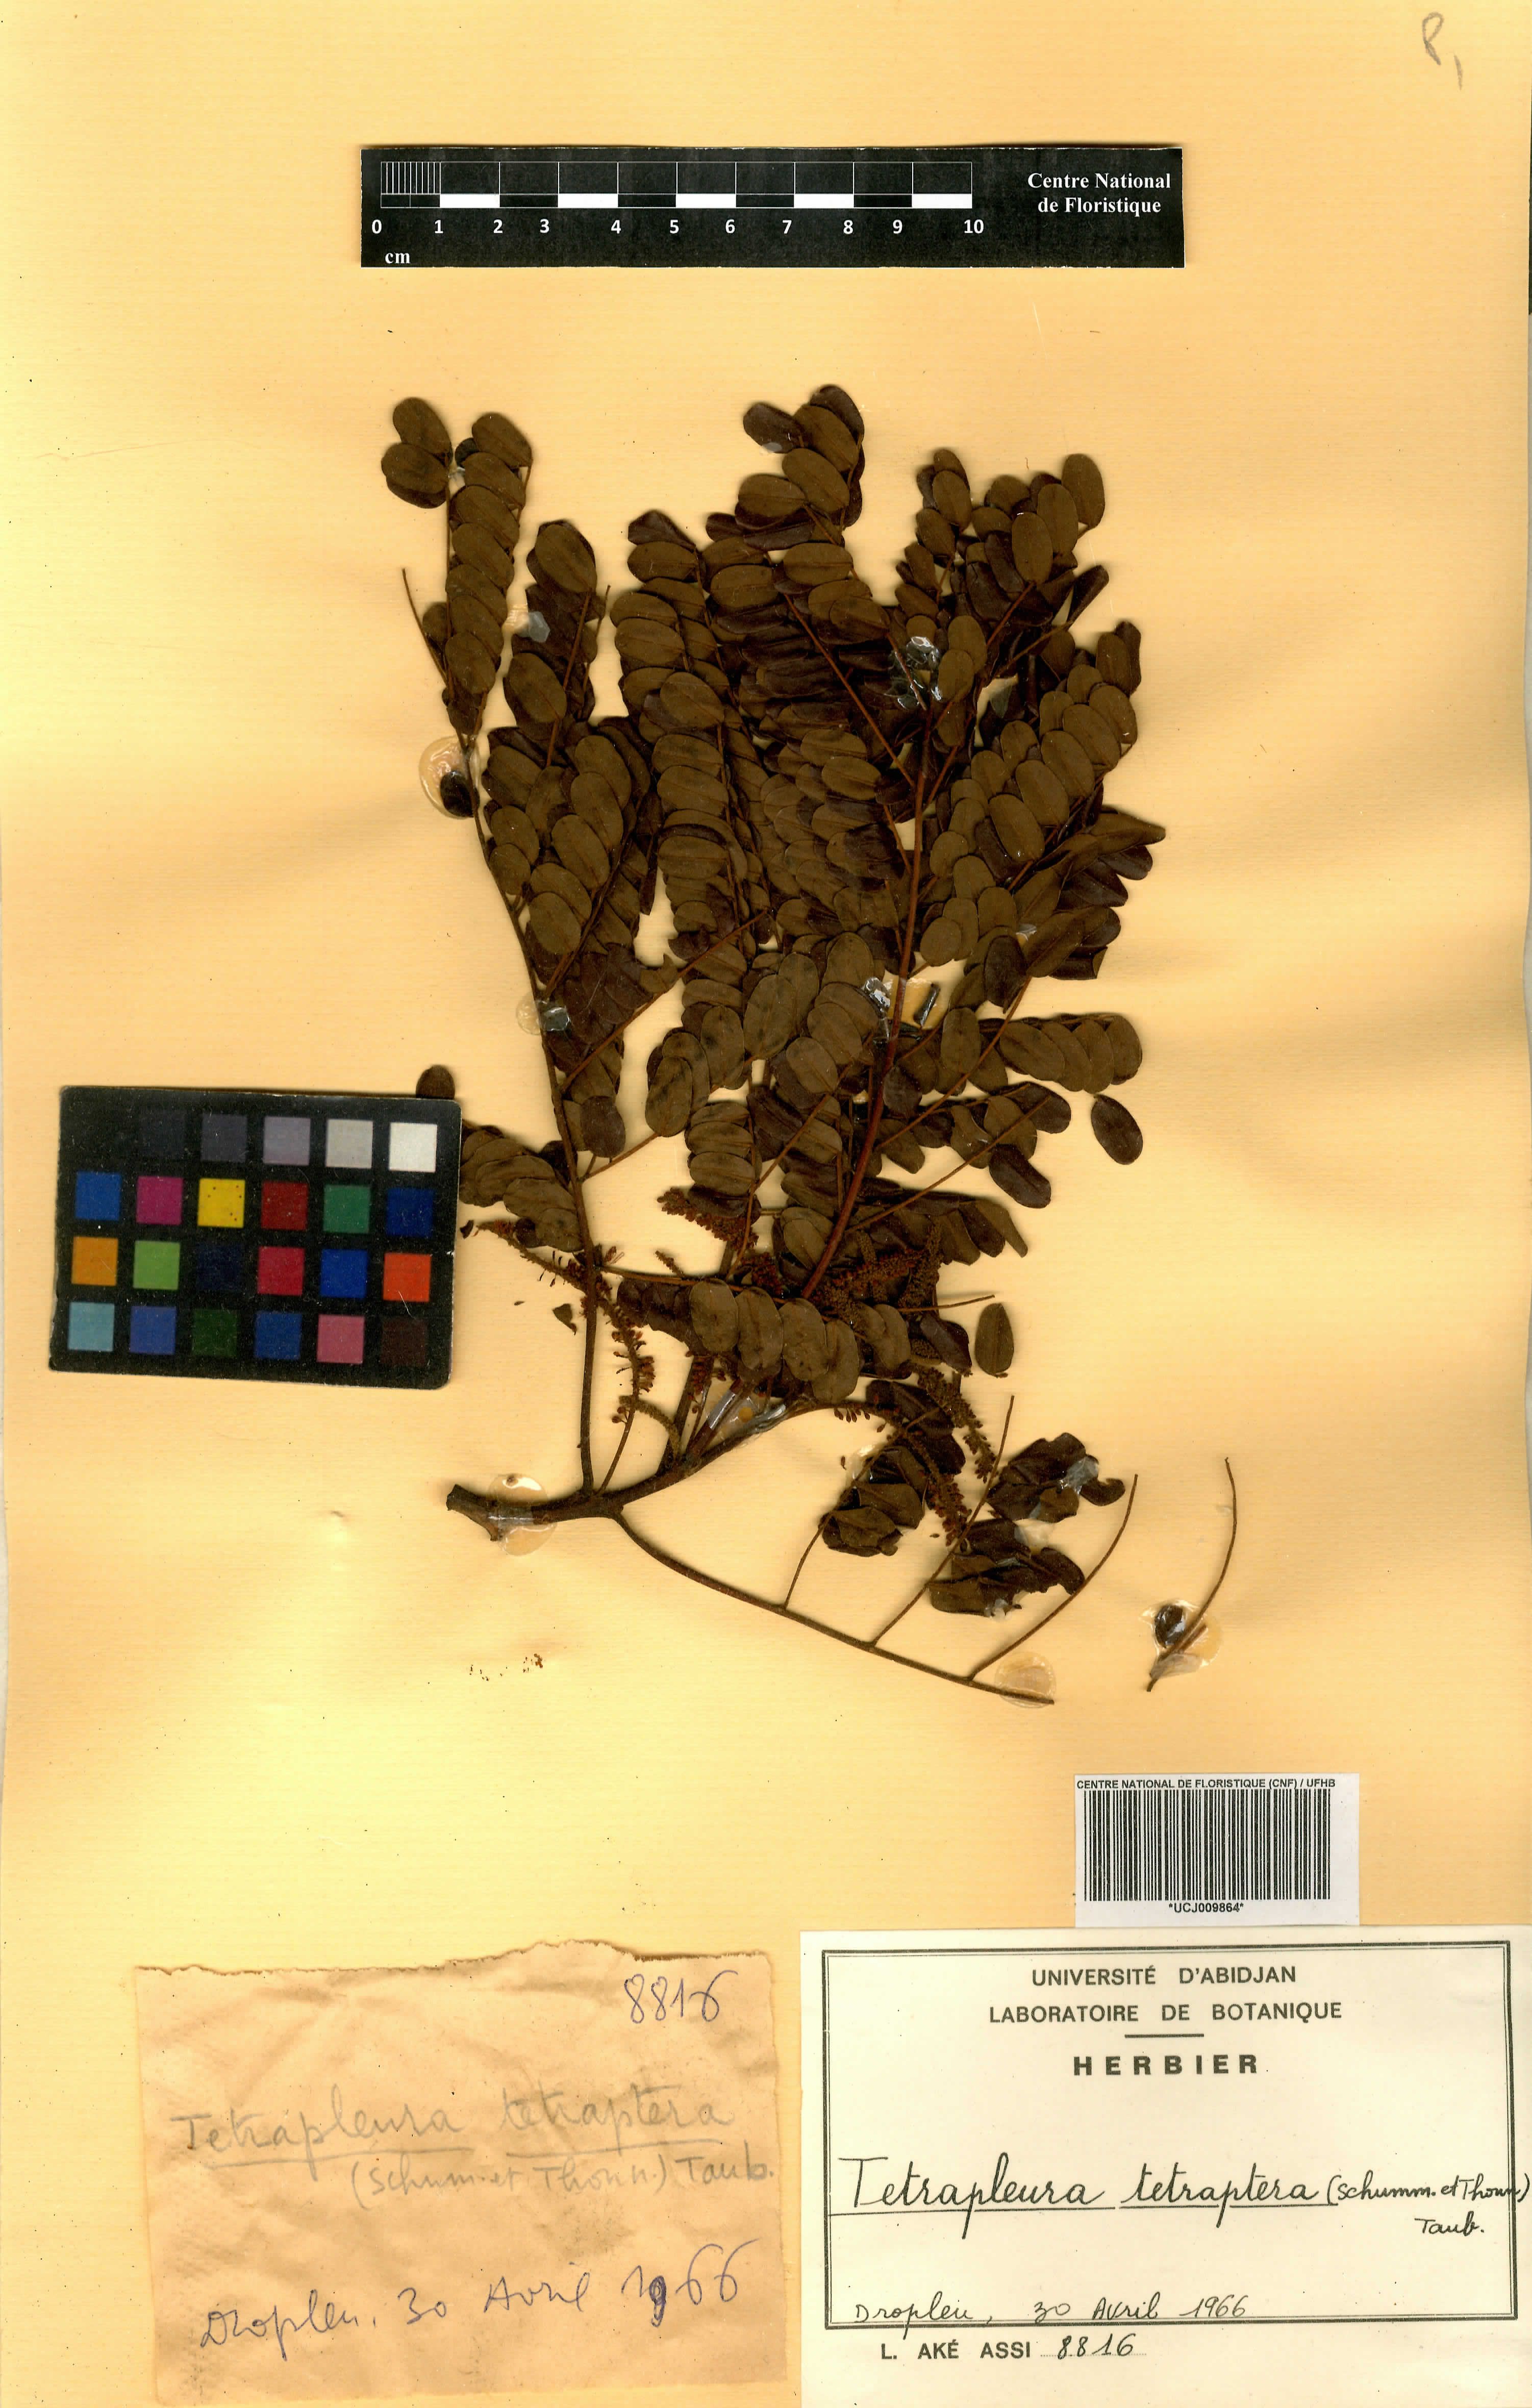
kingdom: Plantae
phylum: Tracheophyta
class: Magnoliopsida
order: Fabales
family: Fabaceae
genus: Xylia
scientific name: Xylia evansii
